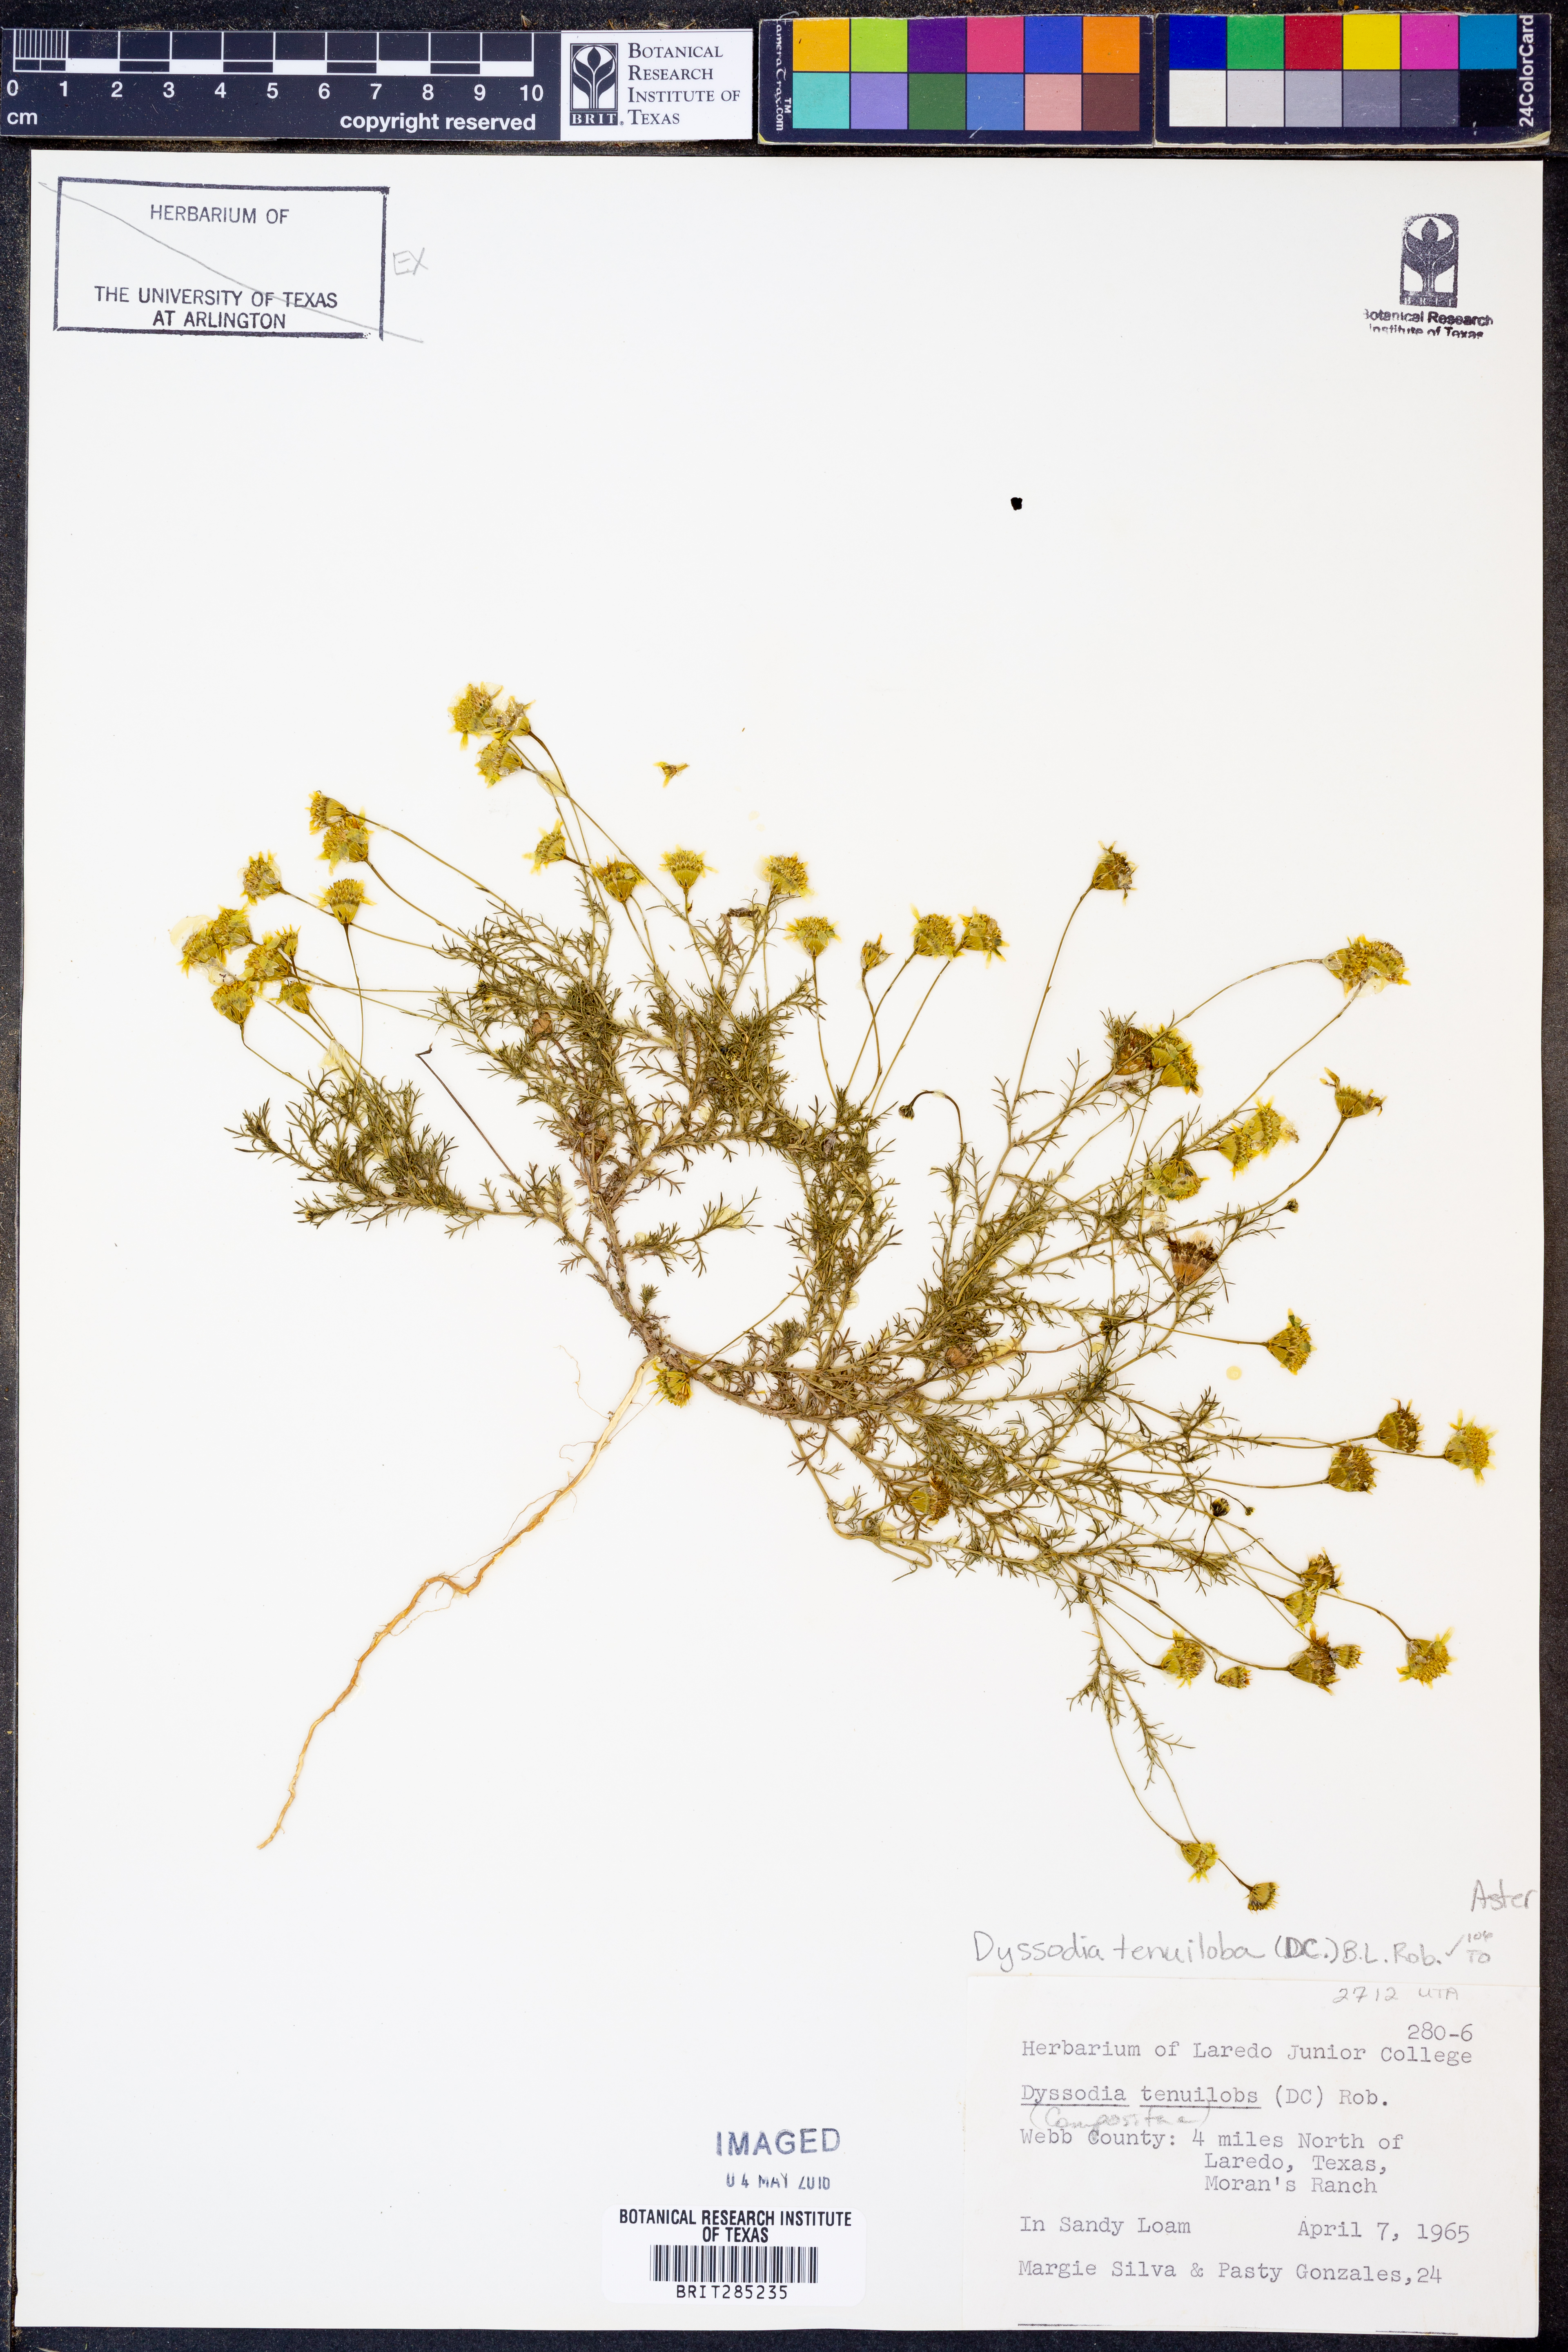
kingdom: Plantae
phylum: Tracheophyta
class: Magnoliopsida
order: Asterales
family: Asteraceae
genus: Thymophylla
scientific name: Thymophylla tenuiloba
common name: Dahlberg's daisy
